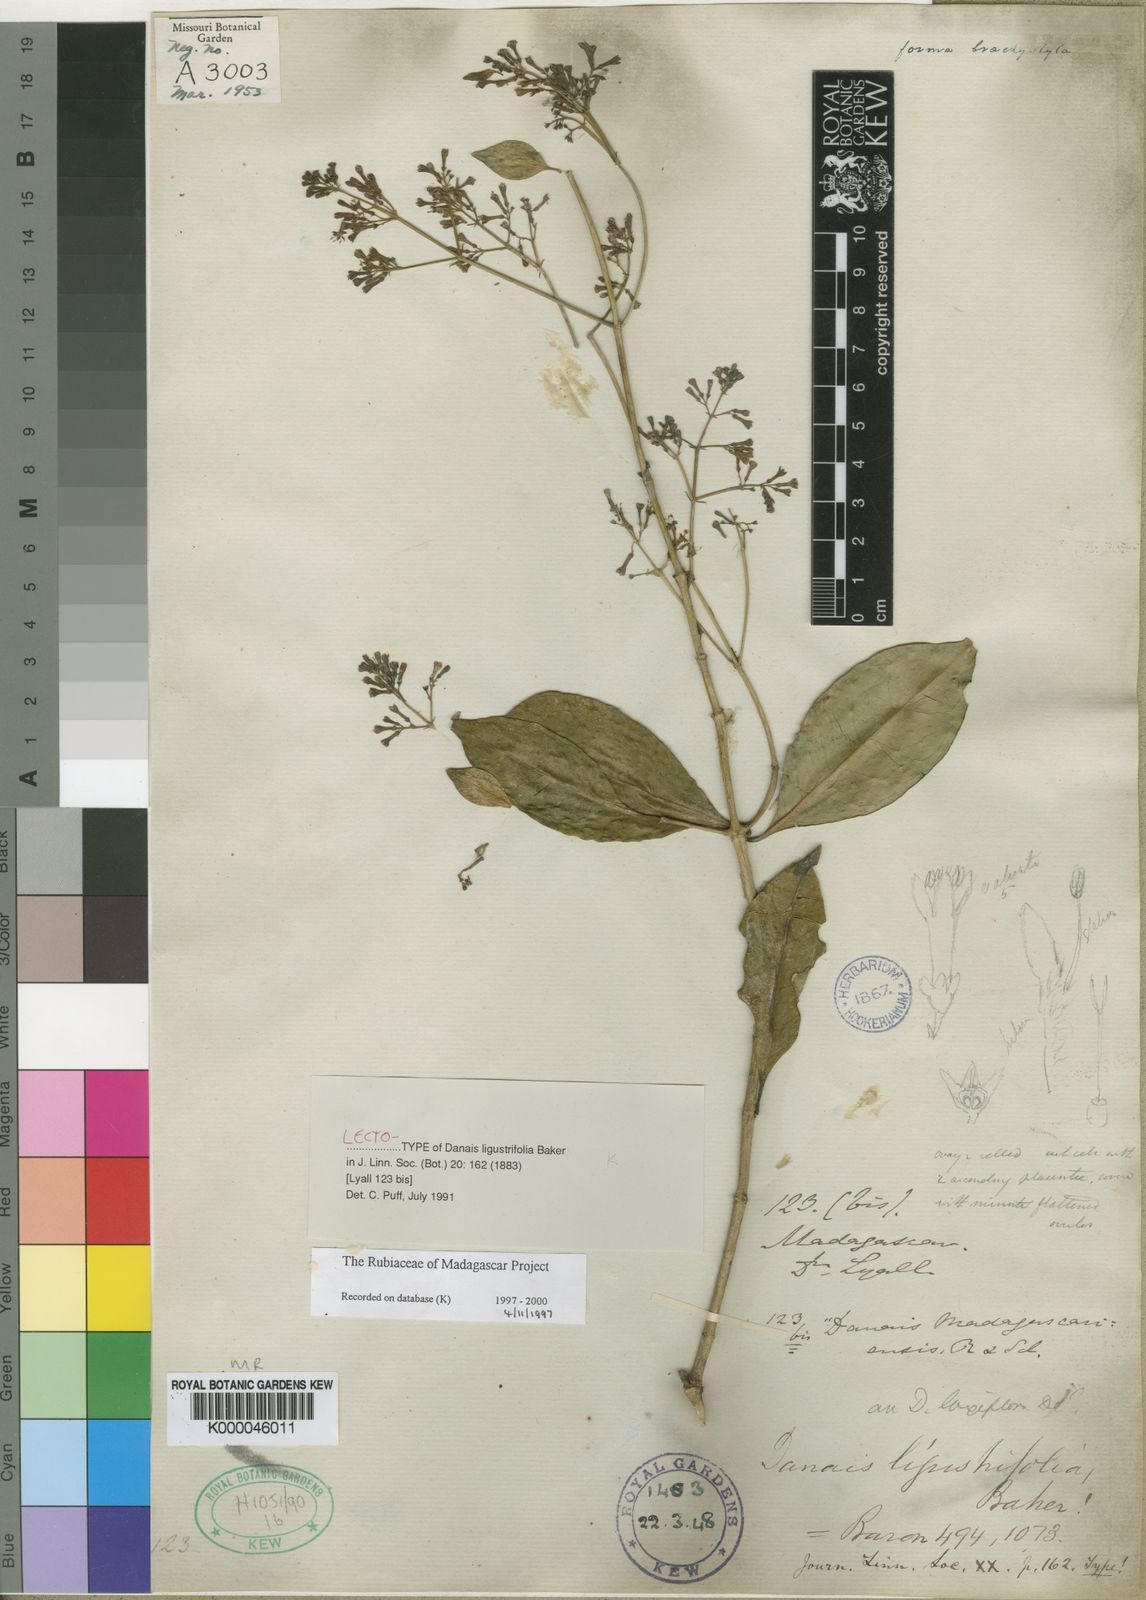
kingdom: Plantae
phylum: Tracheophyta
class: Magnoliopsida
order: Gentianales
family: Rubiaceae
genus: Danais
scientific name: Danais ligustrifolia
